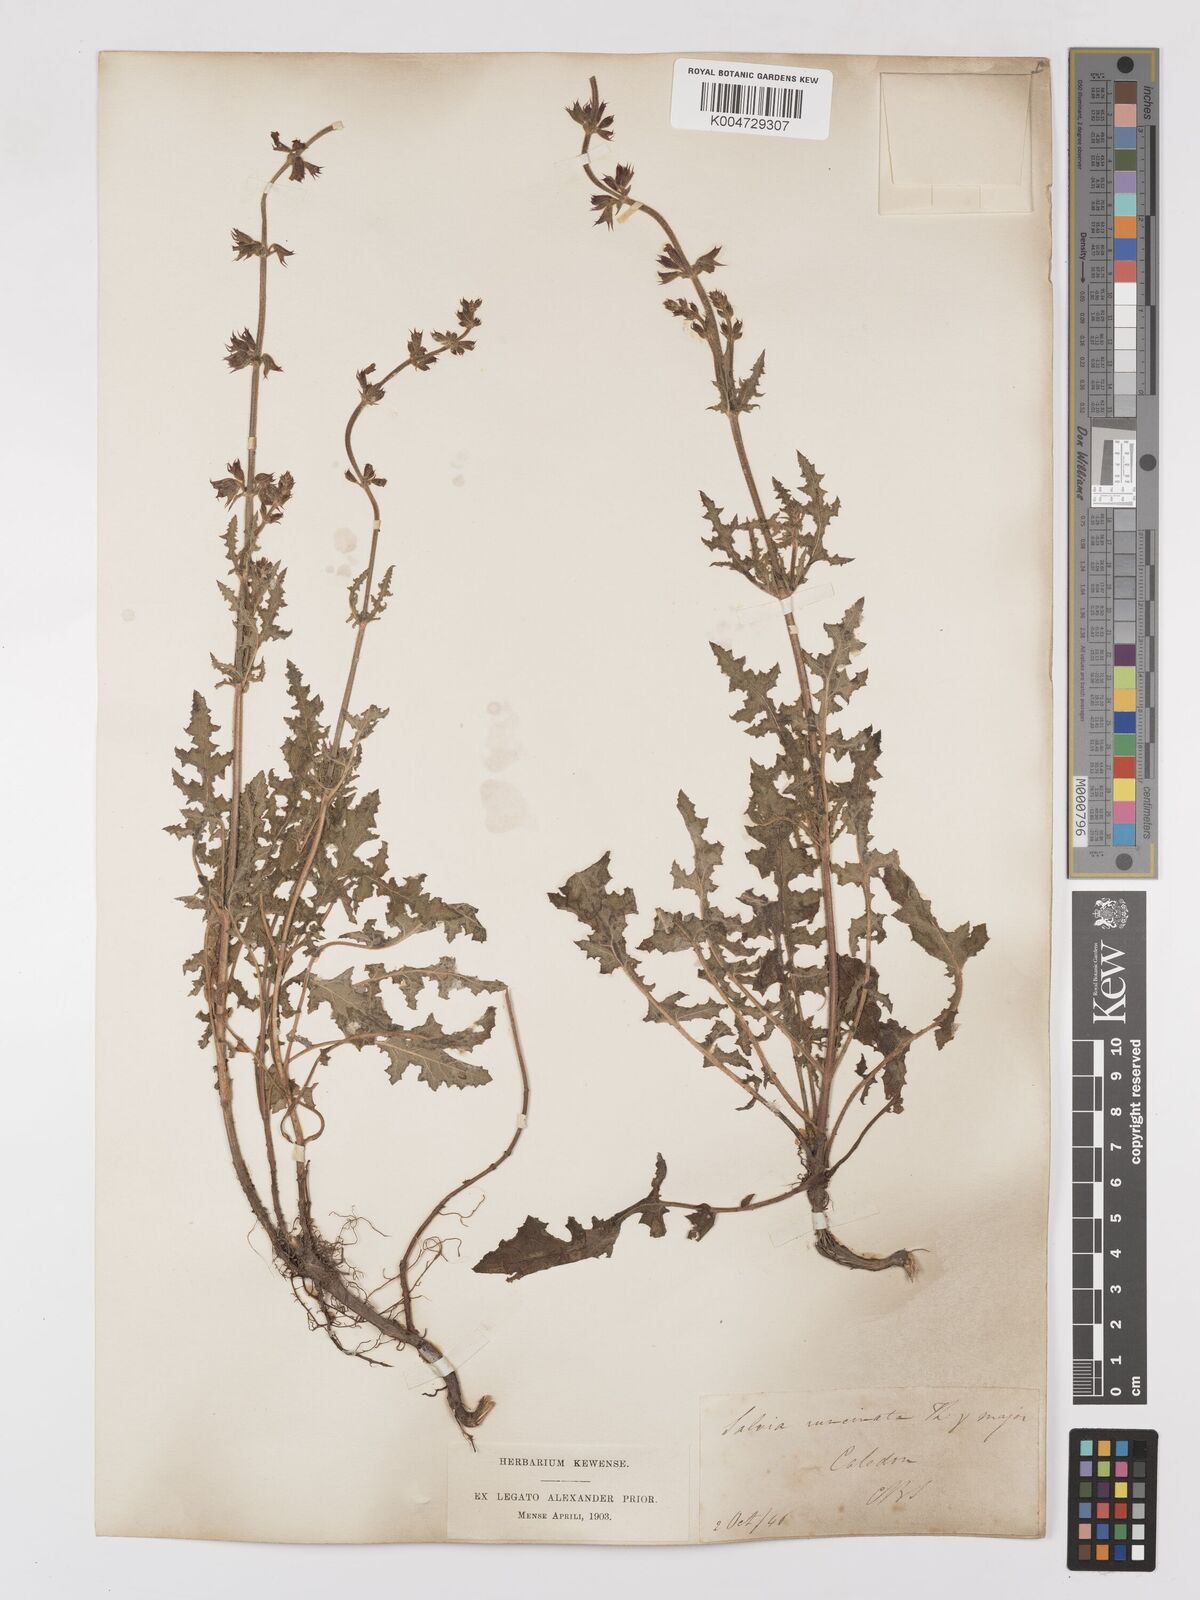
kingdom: Plantae
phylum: Tracheophyta
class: Magnoliopsida
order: Lamiales
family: Lamiaceae
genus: Salvia
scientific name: Salvia runcinata
